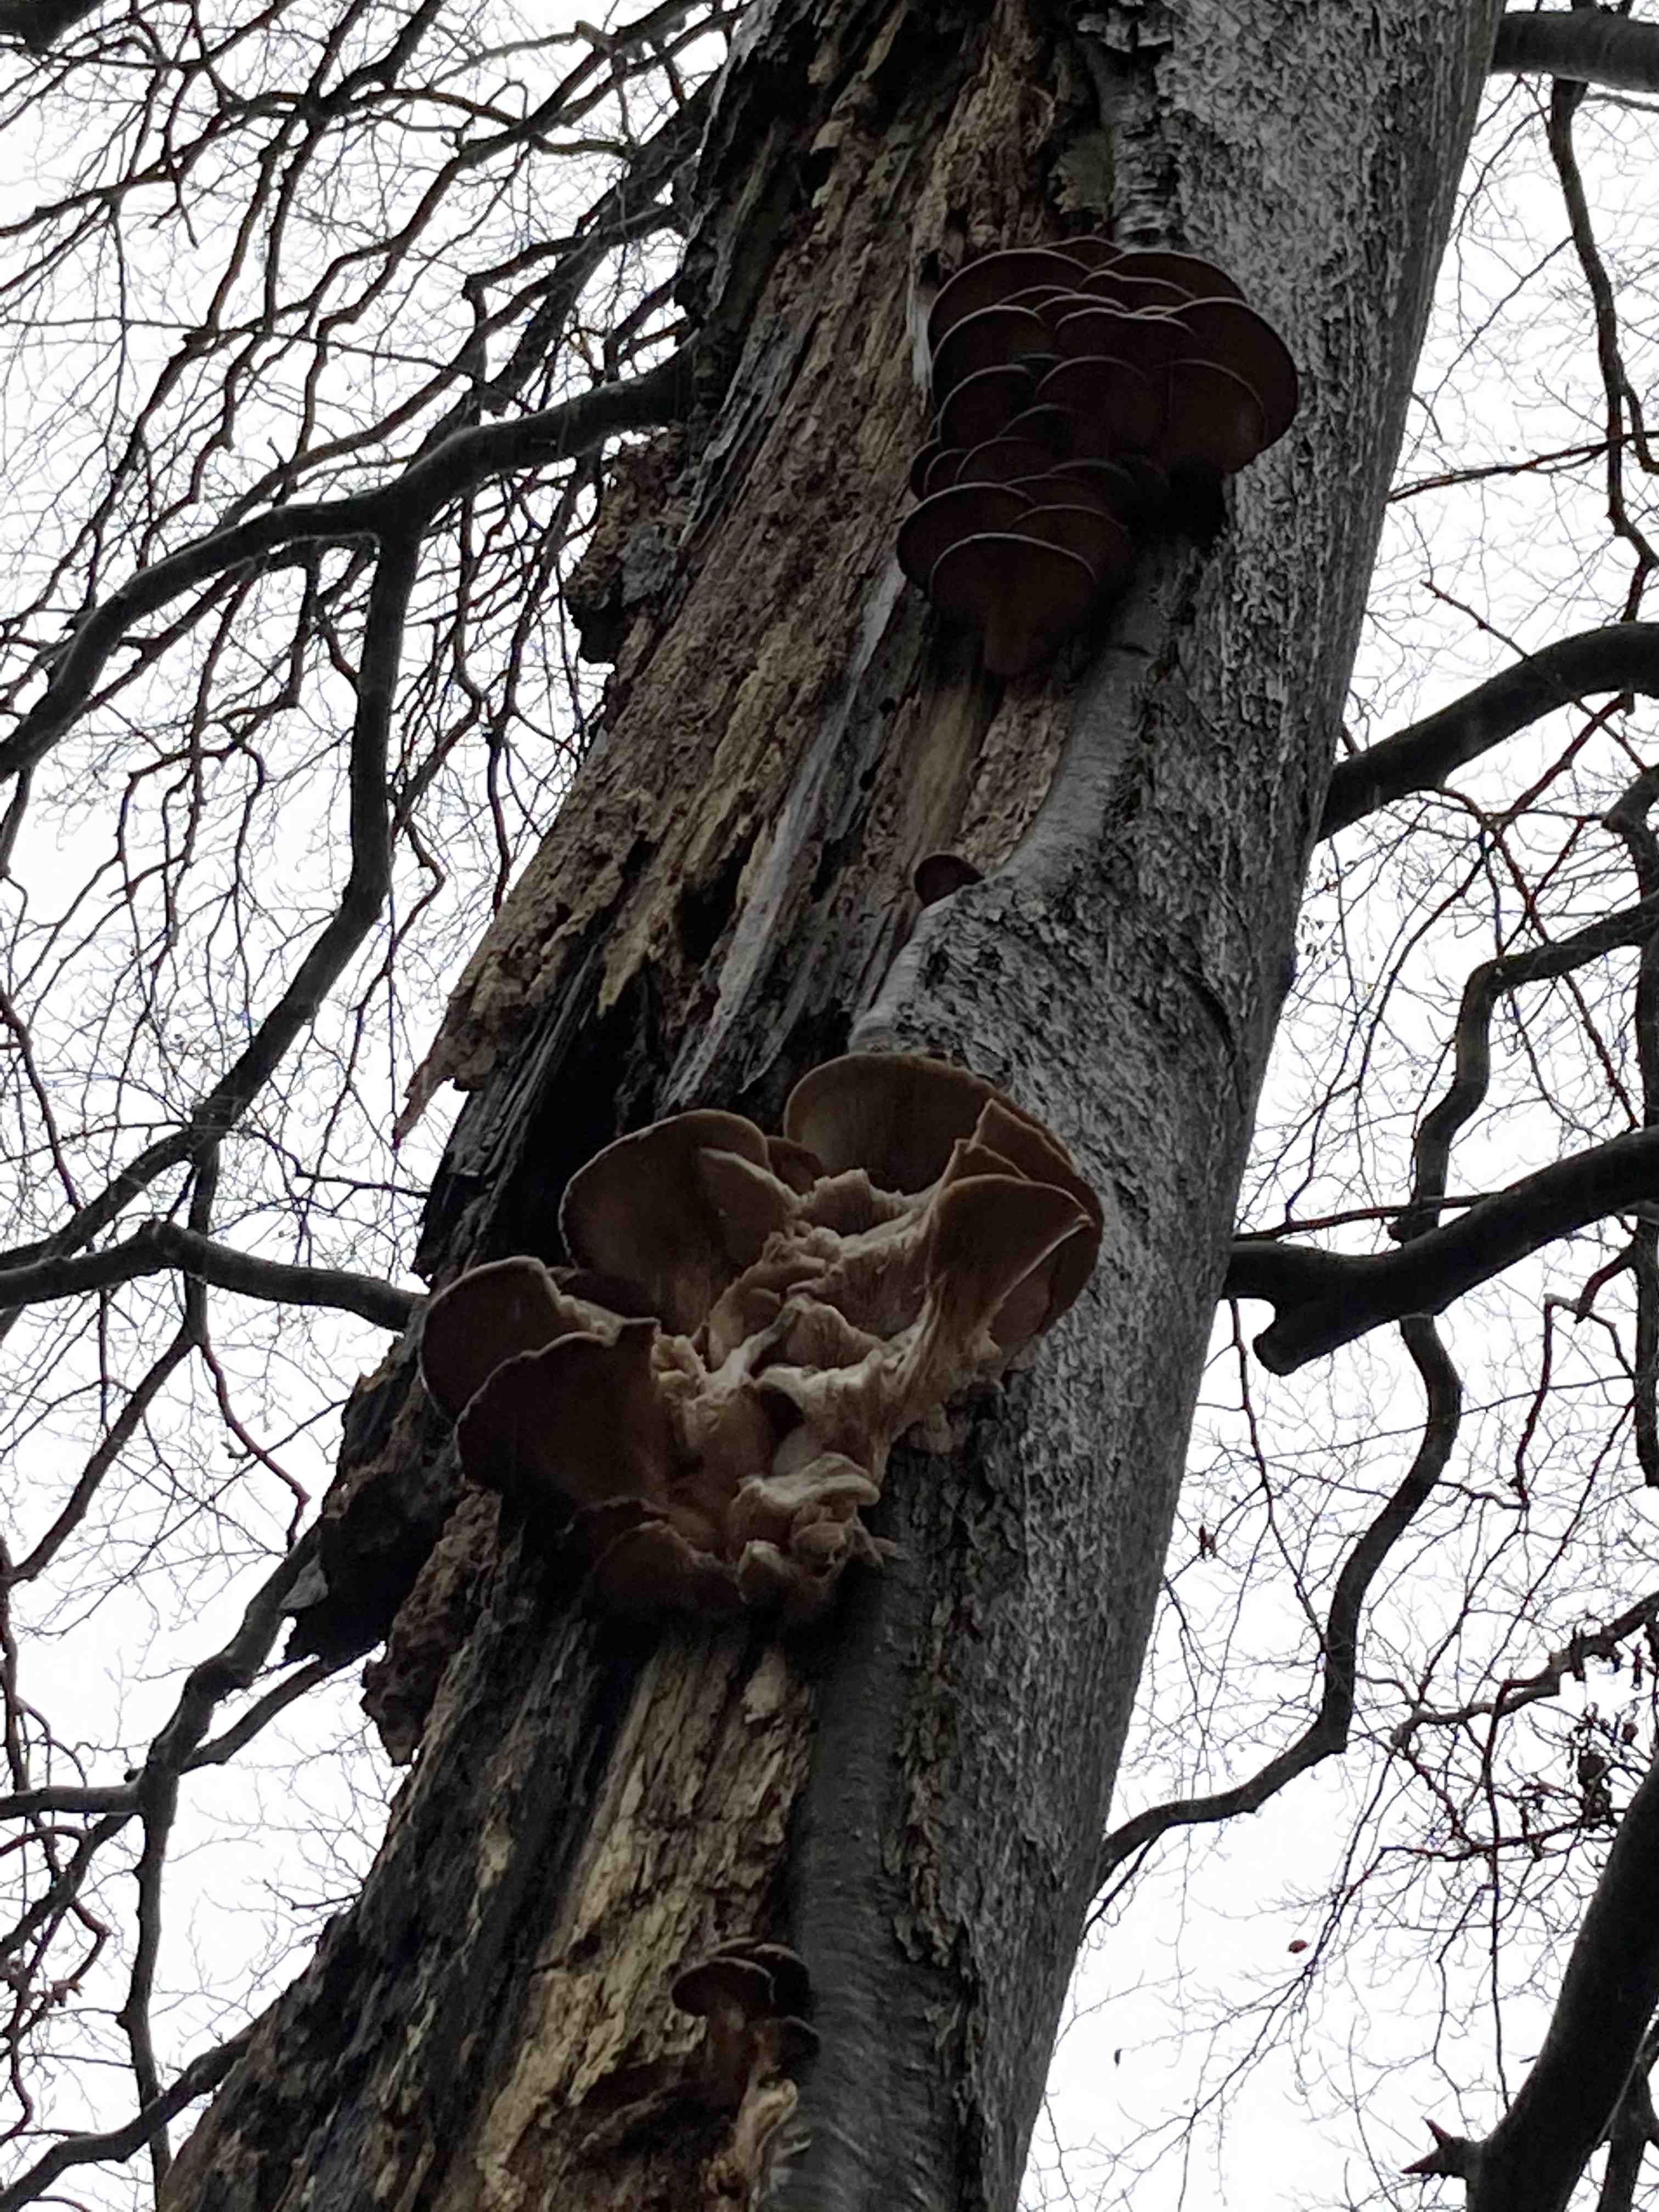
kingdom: Fungi
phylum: Basidiomycota
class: Agaricomycetes
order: Agaricales
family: Pleurotaceae
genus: Pleurotus
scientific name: Pleurotus ostreatus
